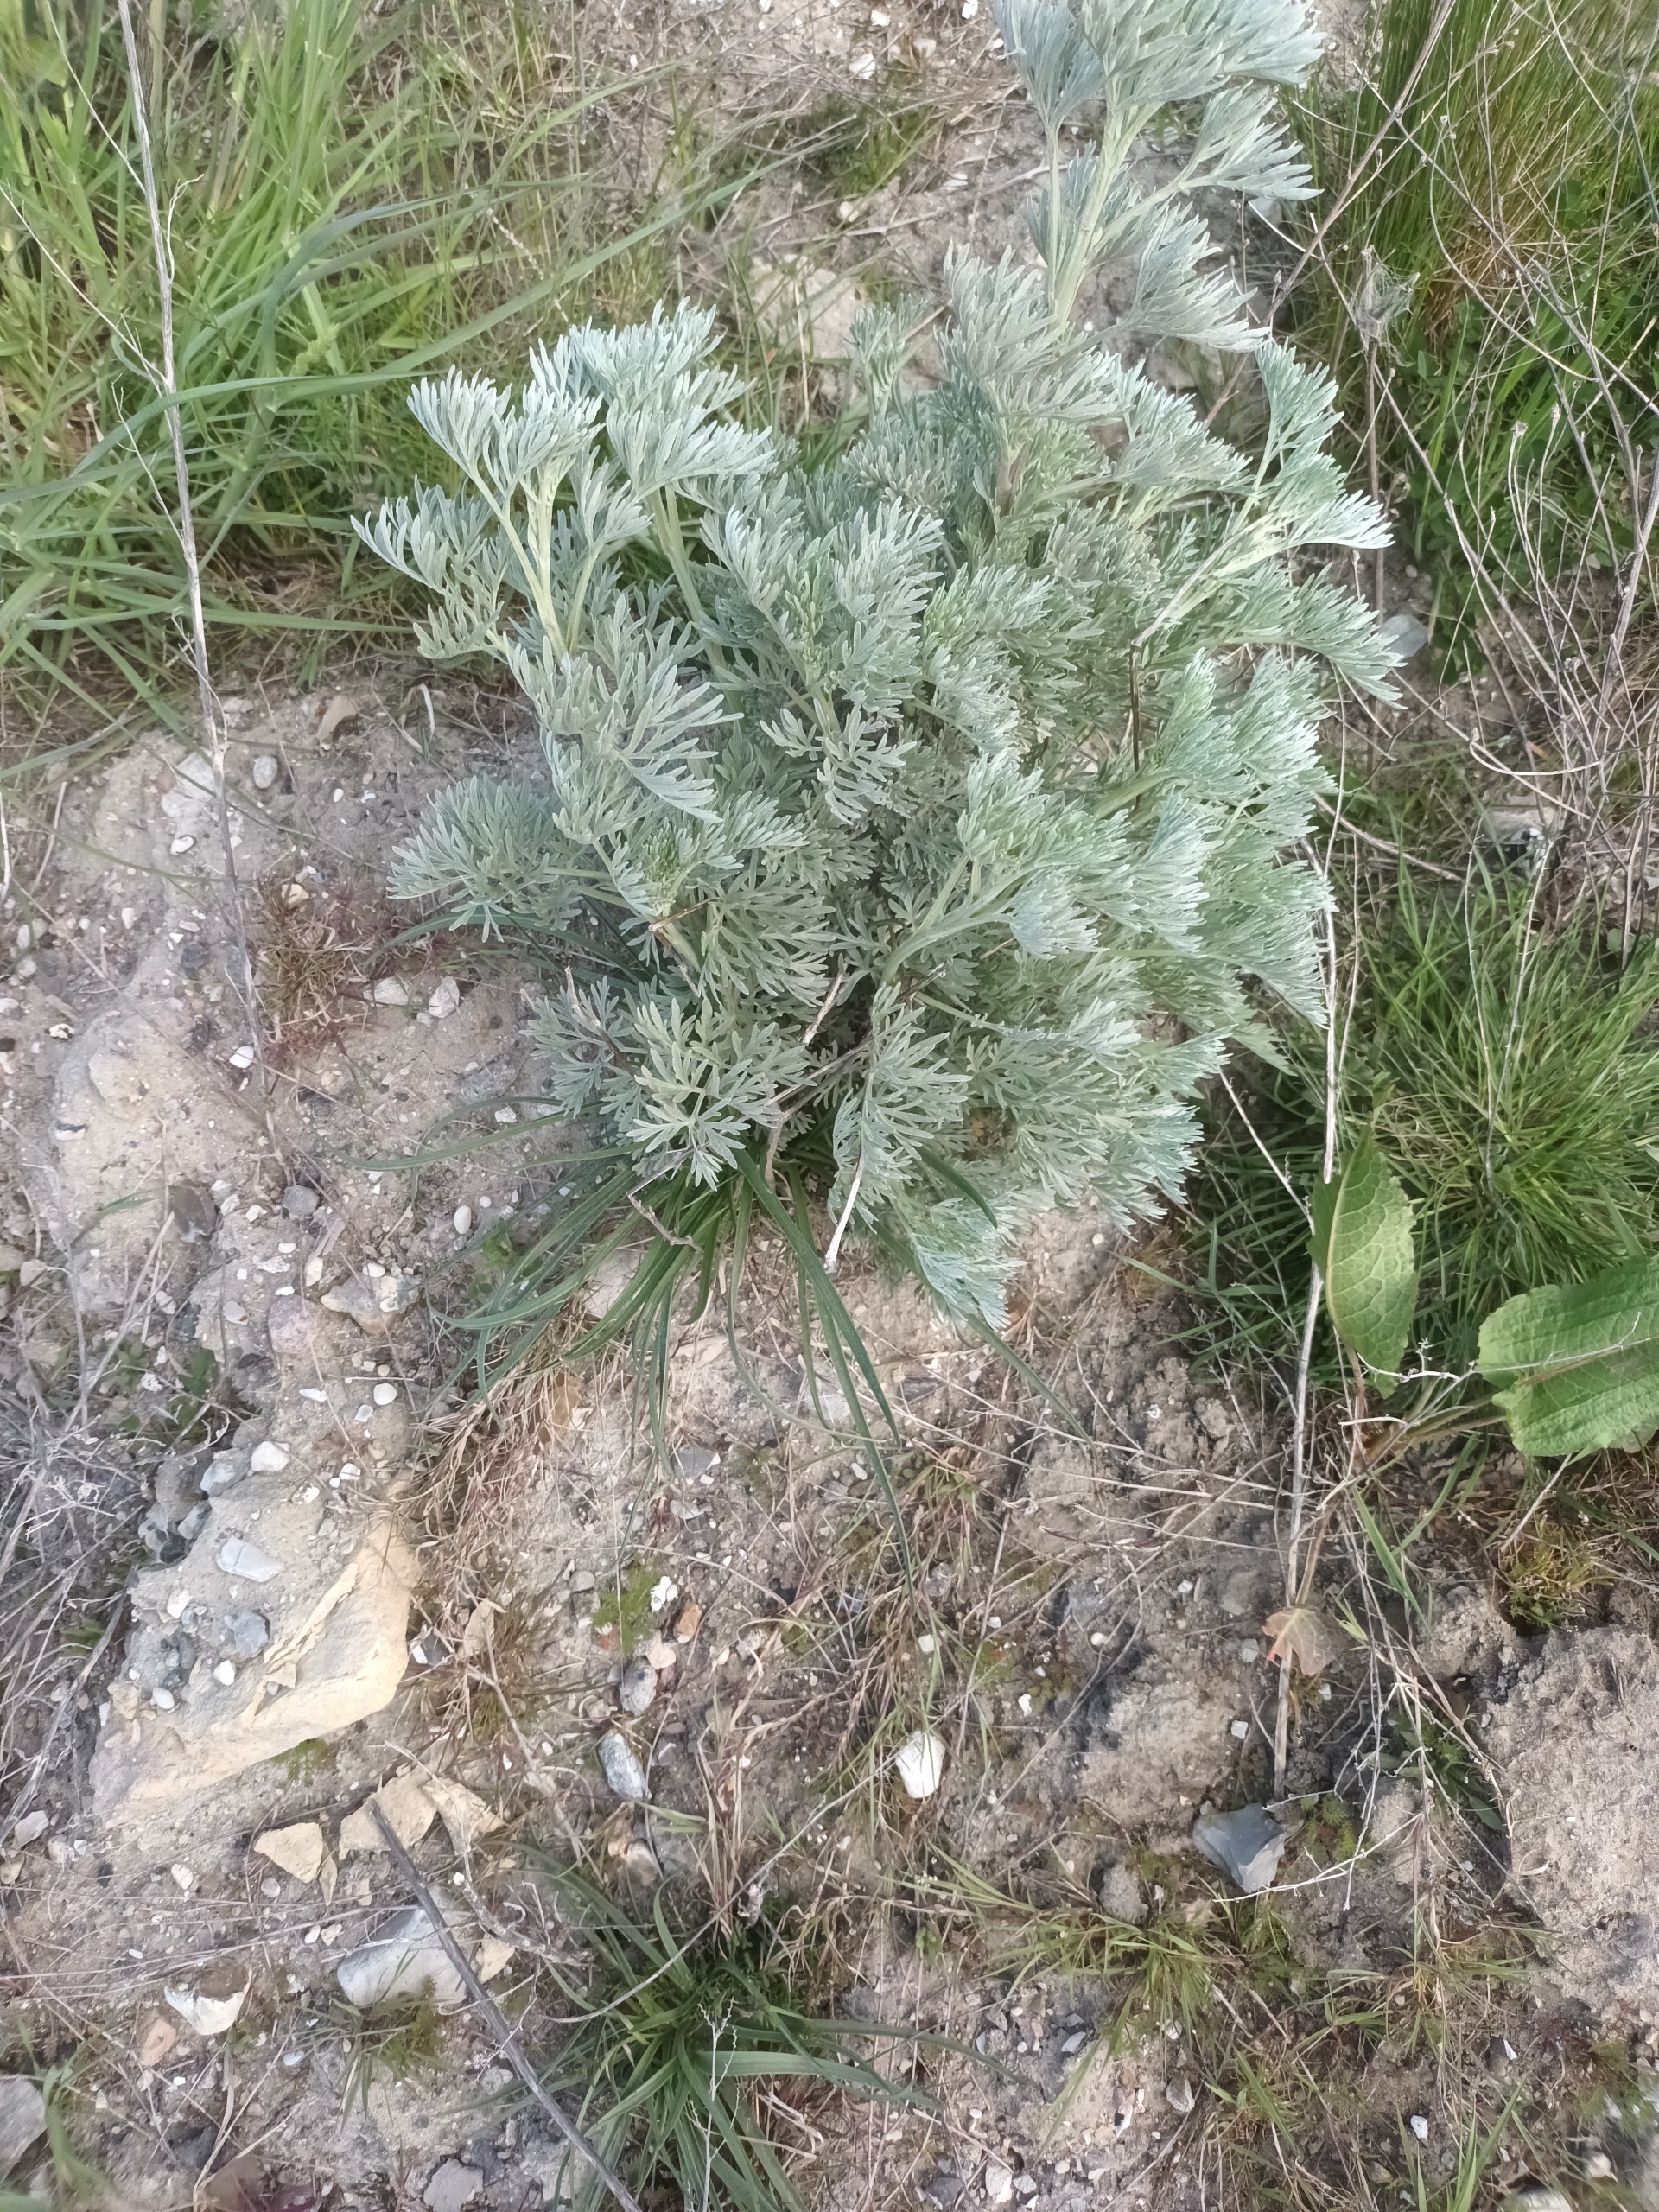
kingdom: Plantae
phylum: Tracheophyta
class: Magnoliopsida
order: Asterales
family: Asteraceae
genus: Artemisia
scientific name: Artemisia absinthium
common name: Havemalurt
